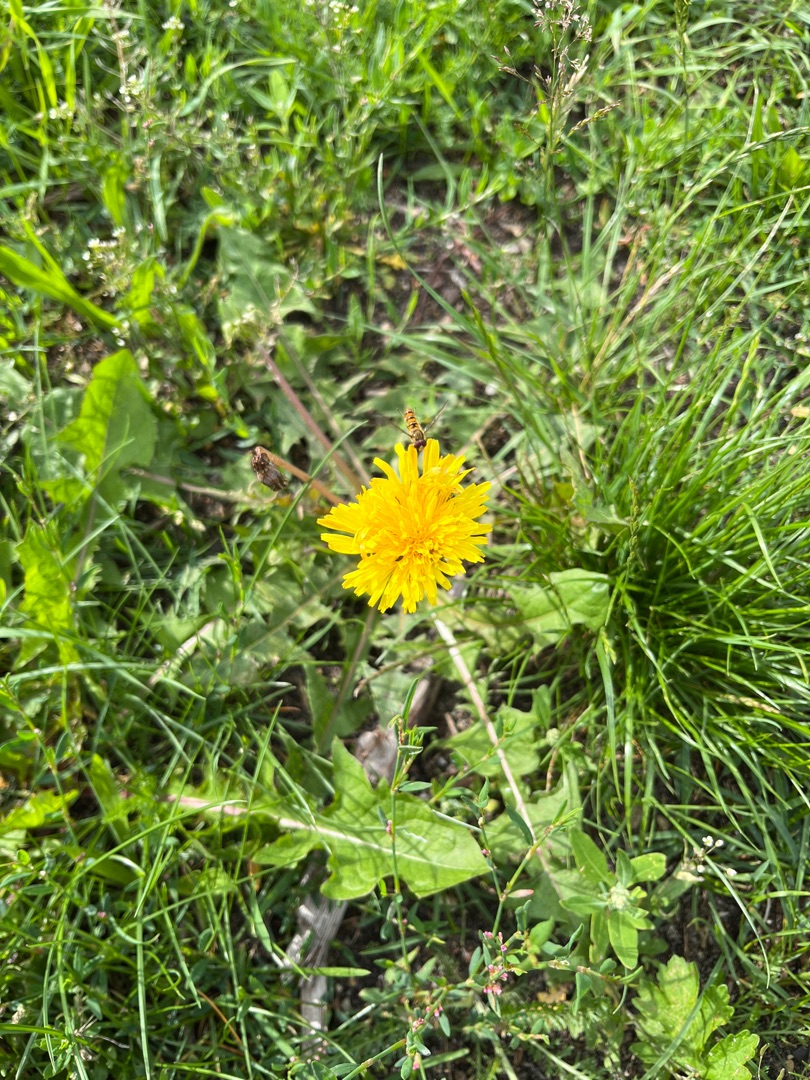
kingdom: Plantae
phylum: Tracheophyta
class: Magnoliopsida
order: Asterales
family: Asteraceae
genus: Taraxacum
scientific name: Taraxacum
